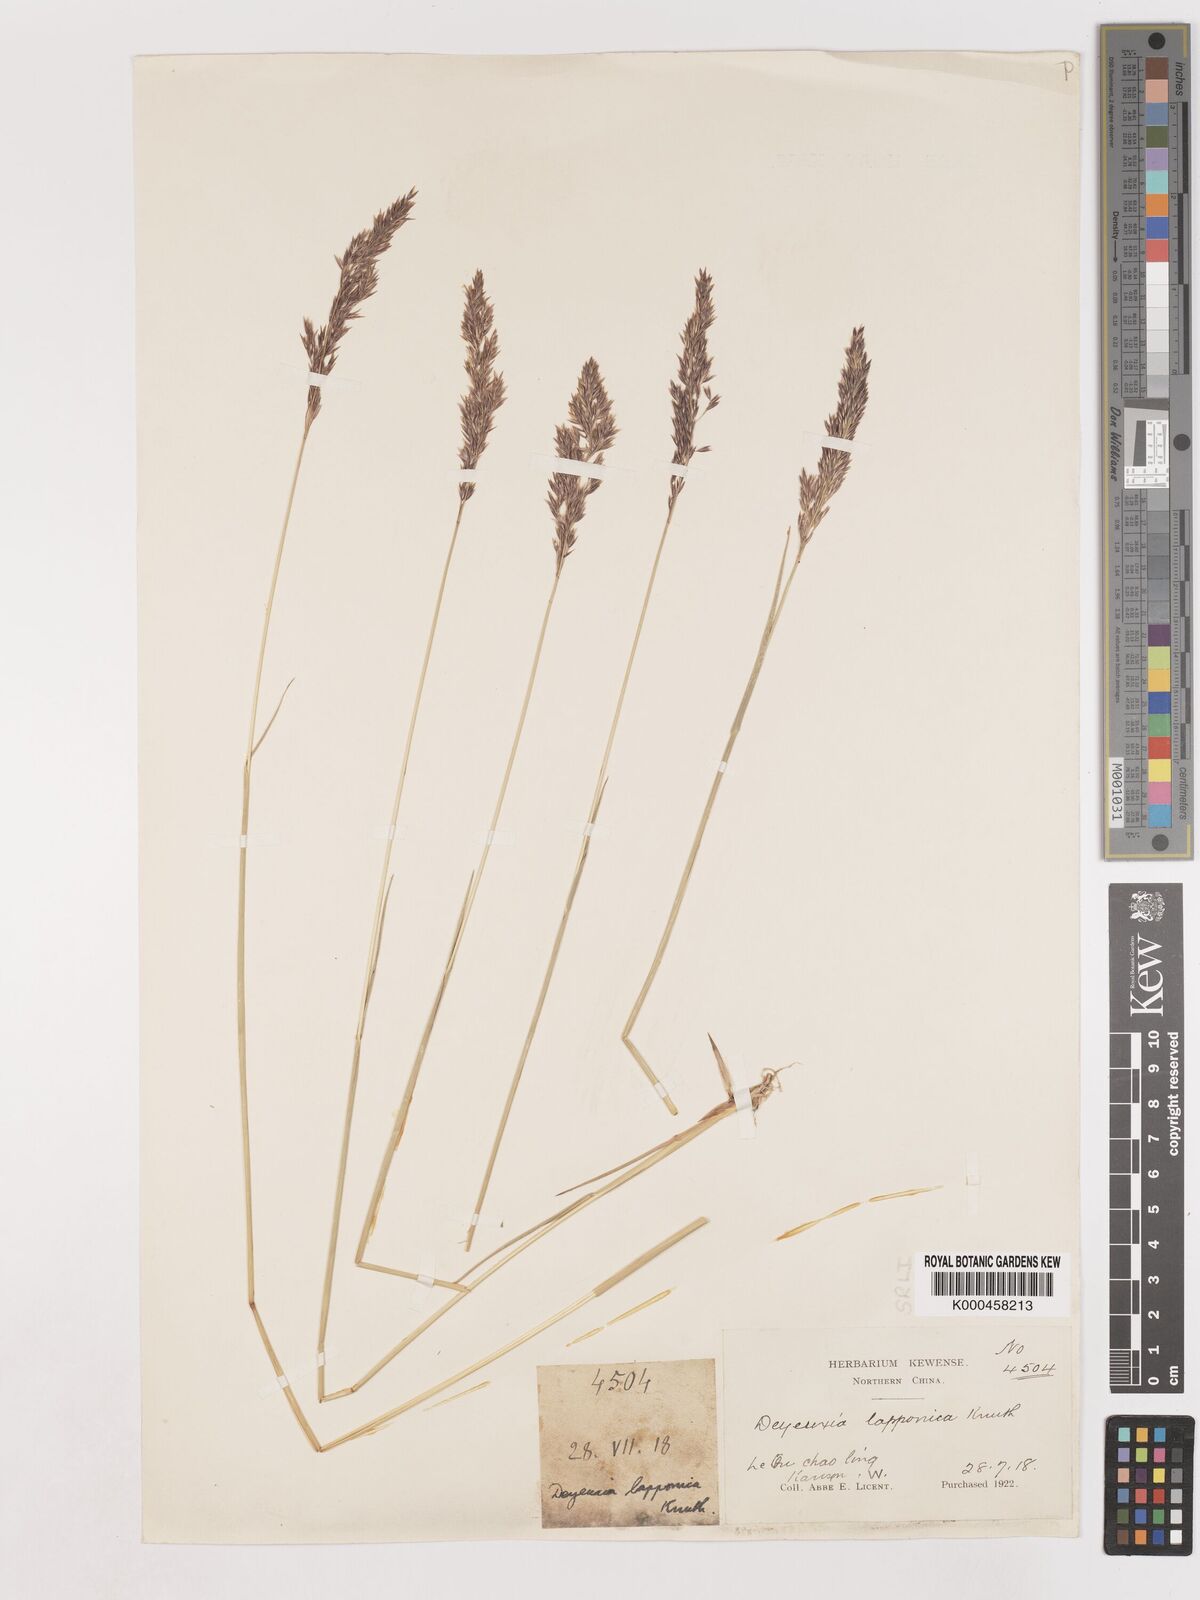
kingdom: Plantae
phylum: Tracheophyta
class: Liliopsida
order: Poales
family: Poaceae
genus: Calamagrostis
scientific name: Calamagrostis
